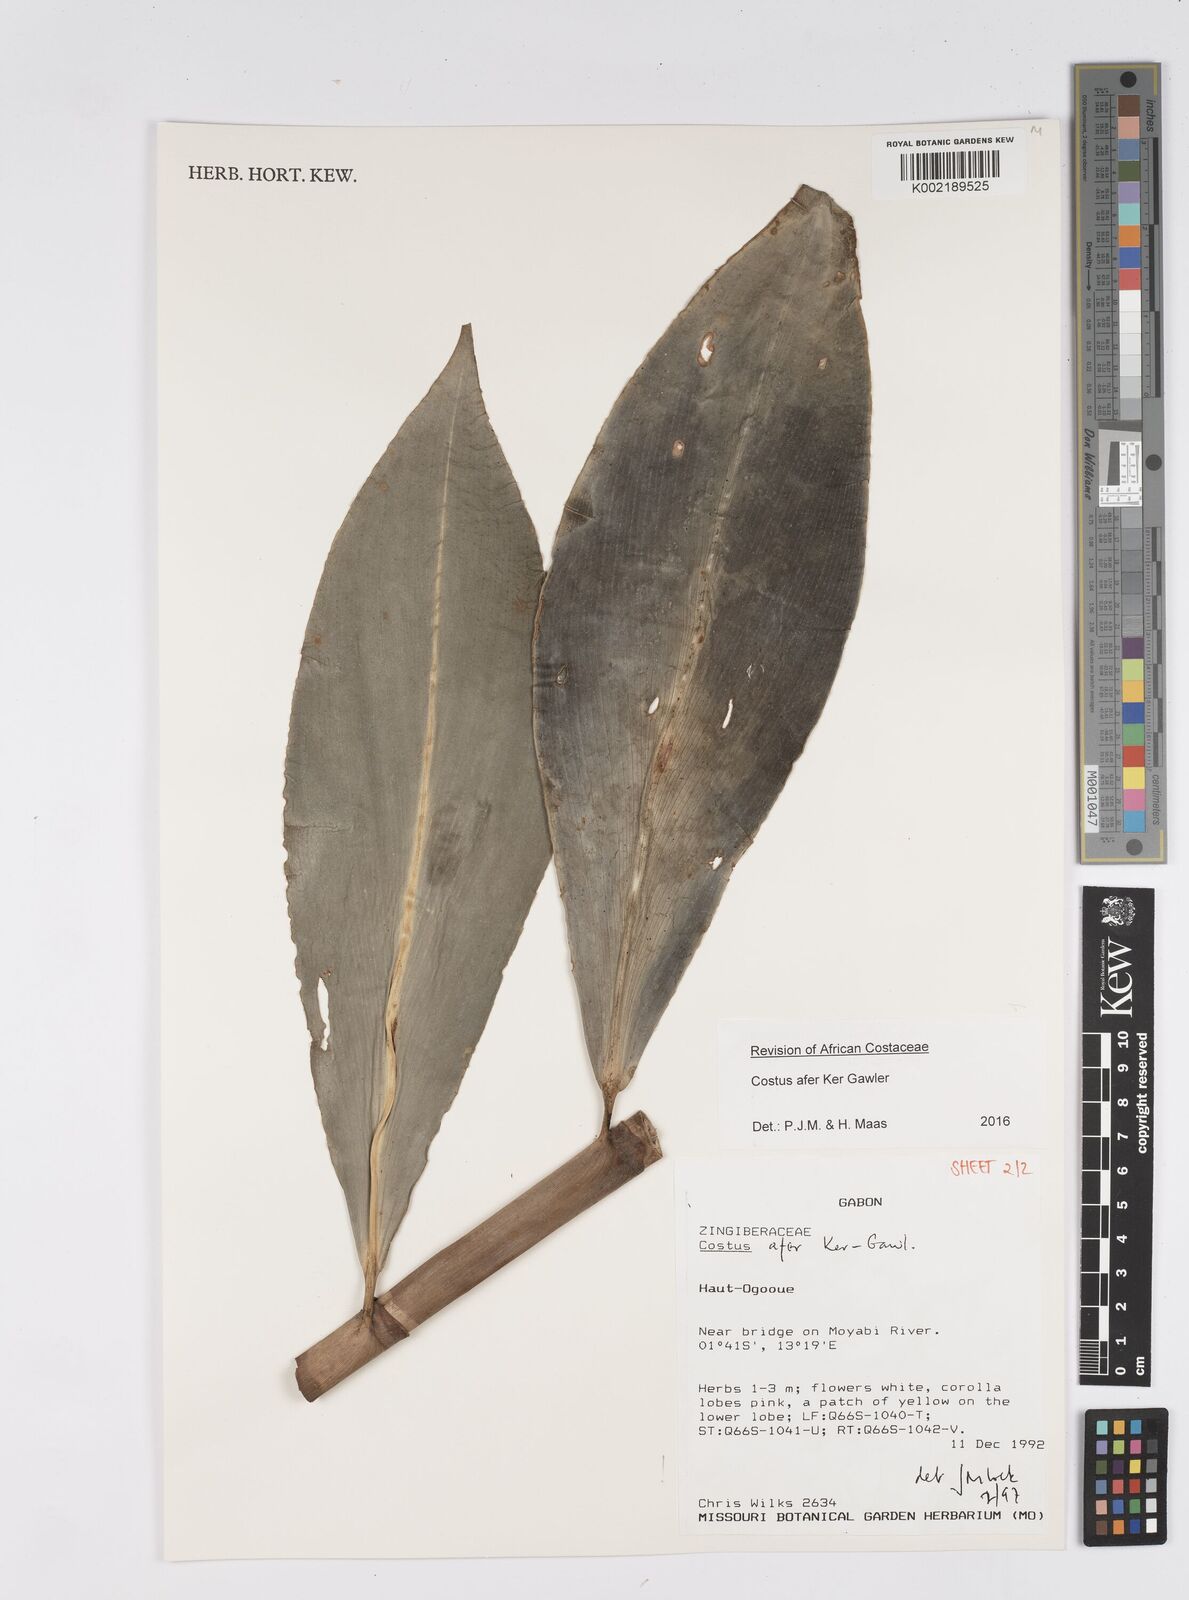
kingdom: Plantae
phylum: Tracheophyta
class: Liliopsida
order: Zingiberales
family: Costaceae
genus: Costus
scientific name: Costus afer
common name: Spiral-ginger
